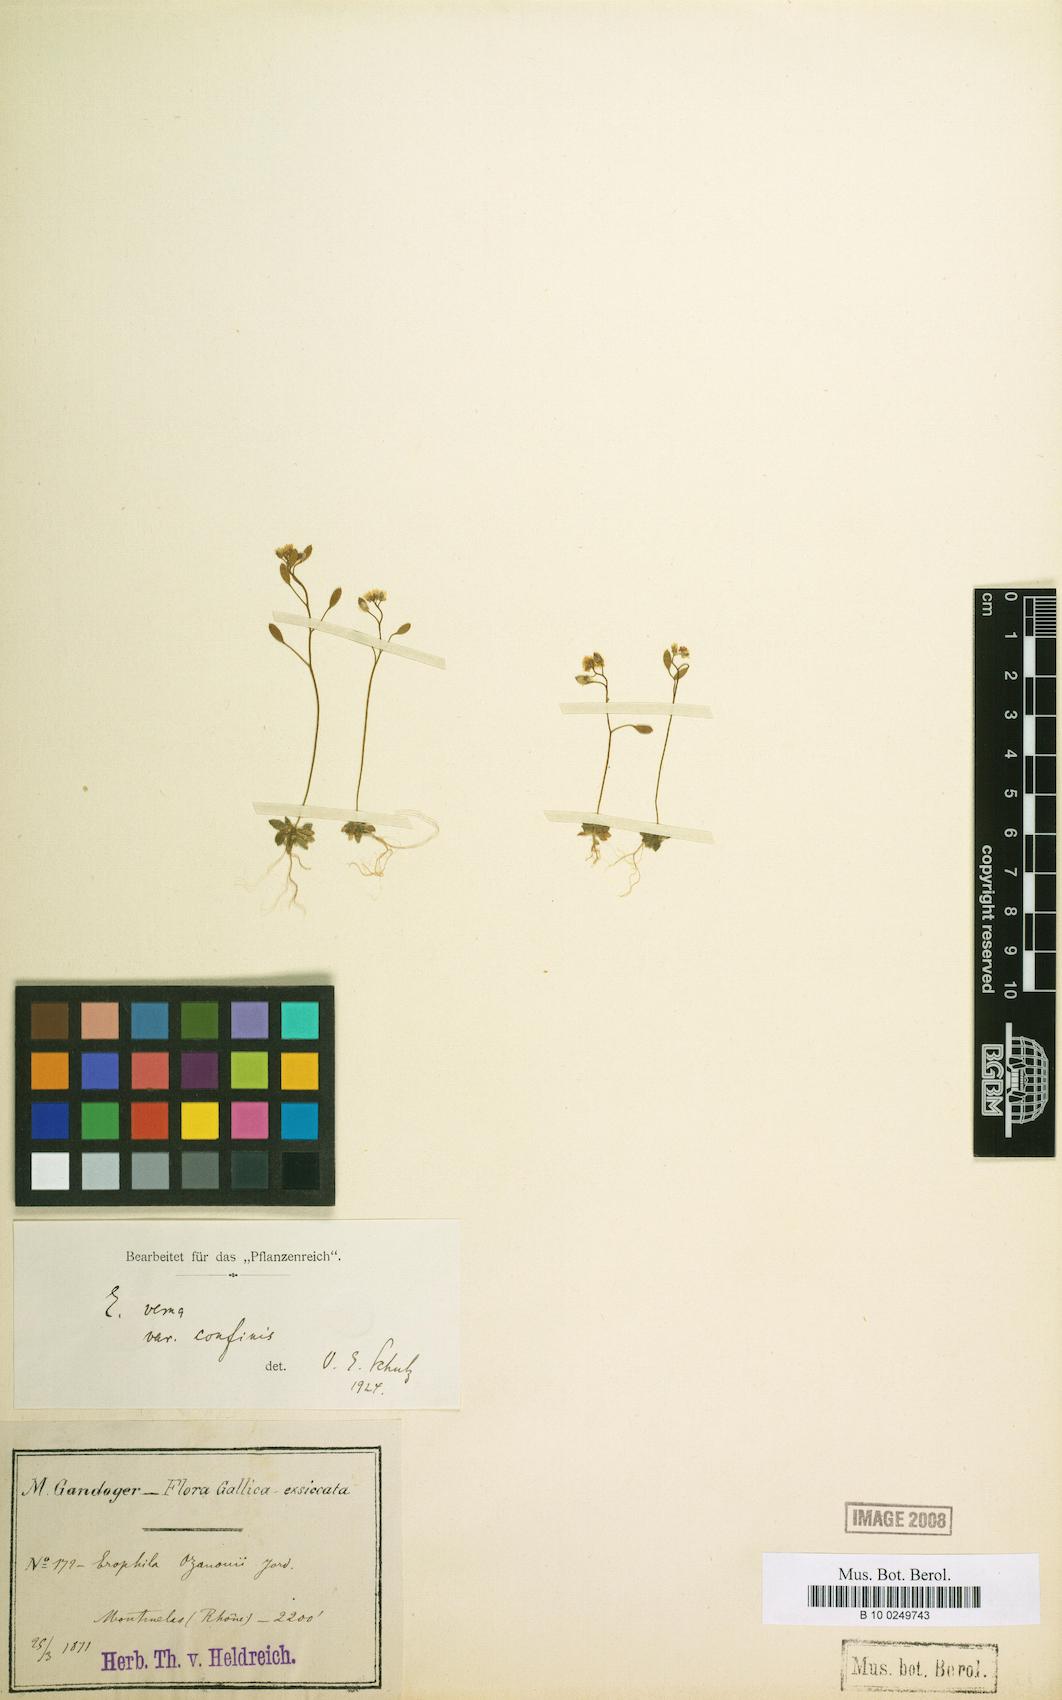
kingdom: Plantae
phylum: Tracheophyta
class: Magnoliopsida
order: Brassicales
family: Brassicaceae
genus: Draba
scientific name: Draba verna
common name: Spring draba
